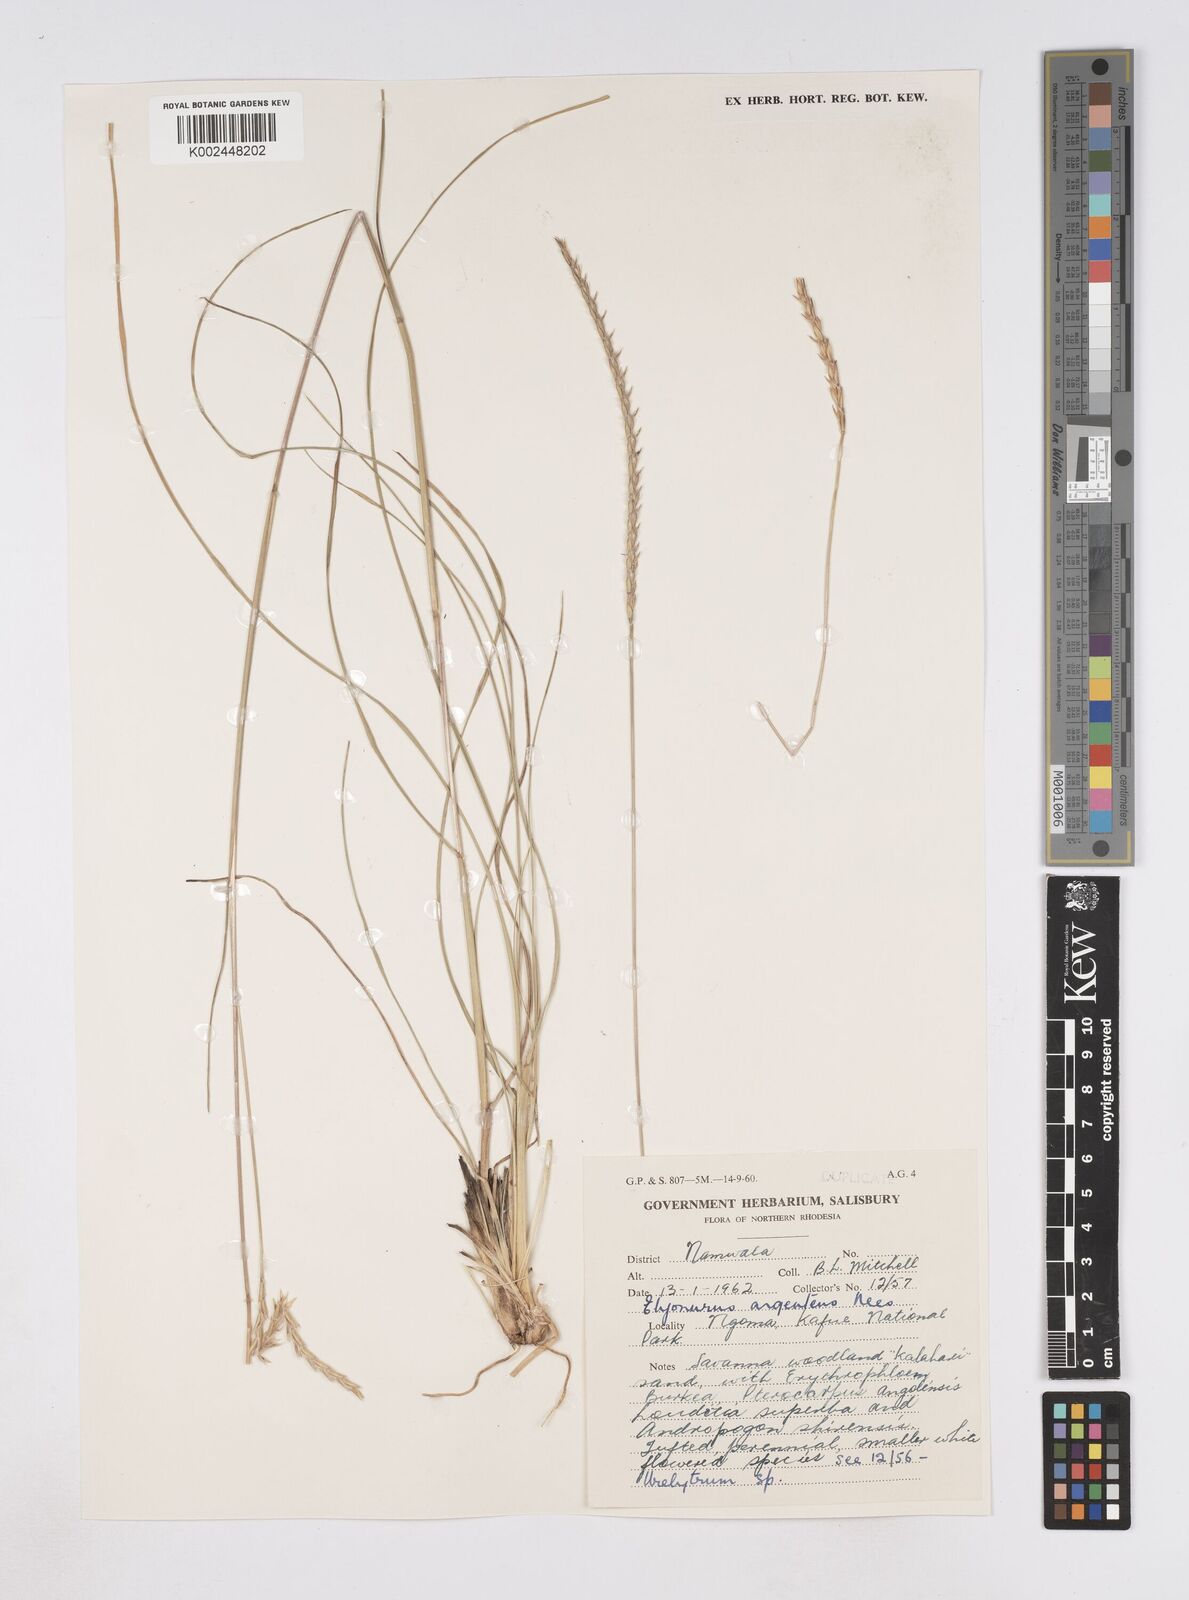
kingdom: Plantae
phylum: Tracheophyta
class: Liliopsida
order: Poales
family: Poaceae
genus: Elionurus
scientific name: Elionurus muticus
